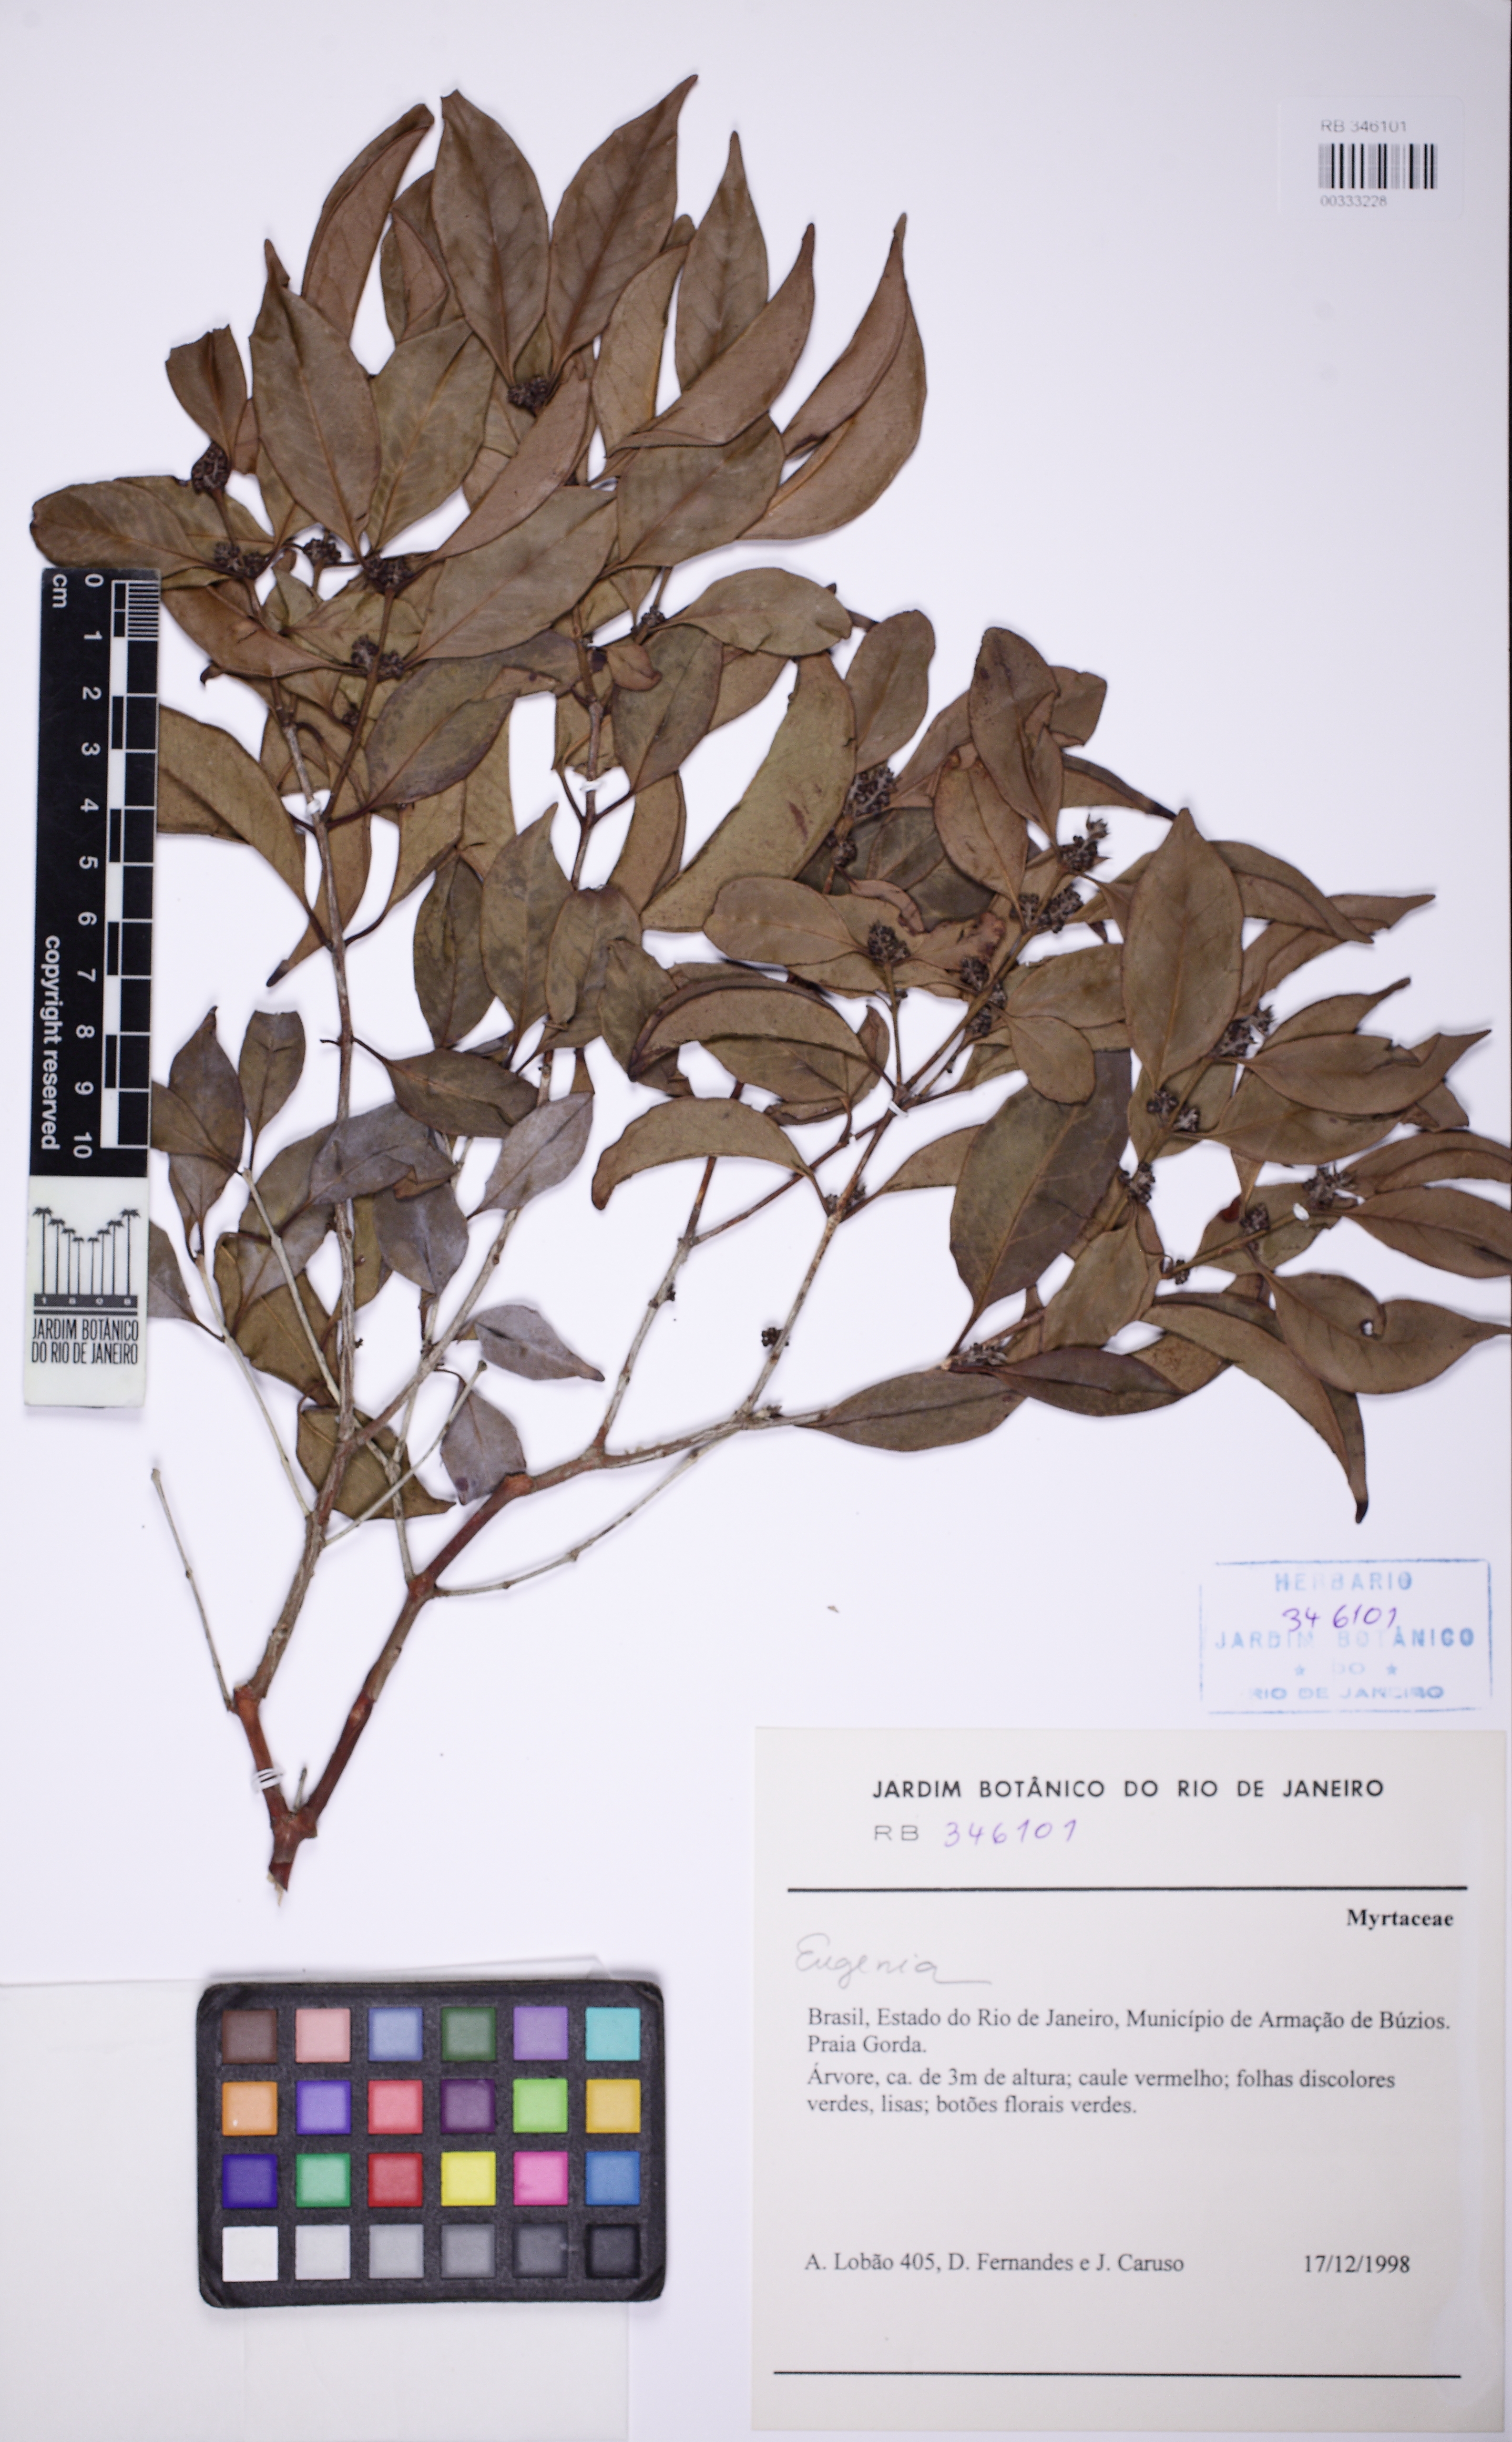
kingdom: Plantae
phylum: Tracheophyta
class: Magnoliopsida
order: Myrtales
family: Myrtaceae
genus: Eugenia
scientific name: Eugenia repanda
